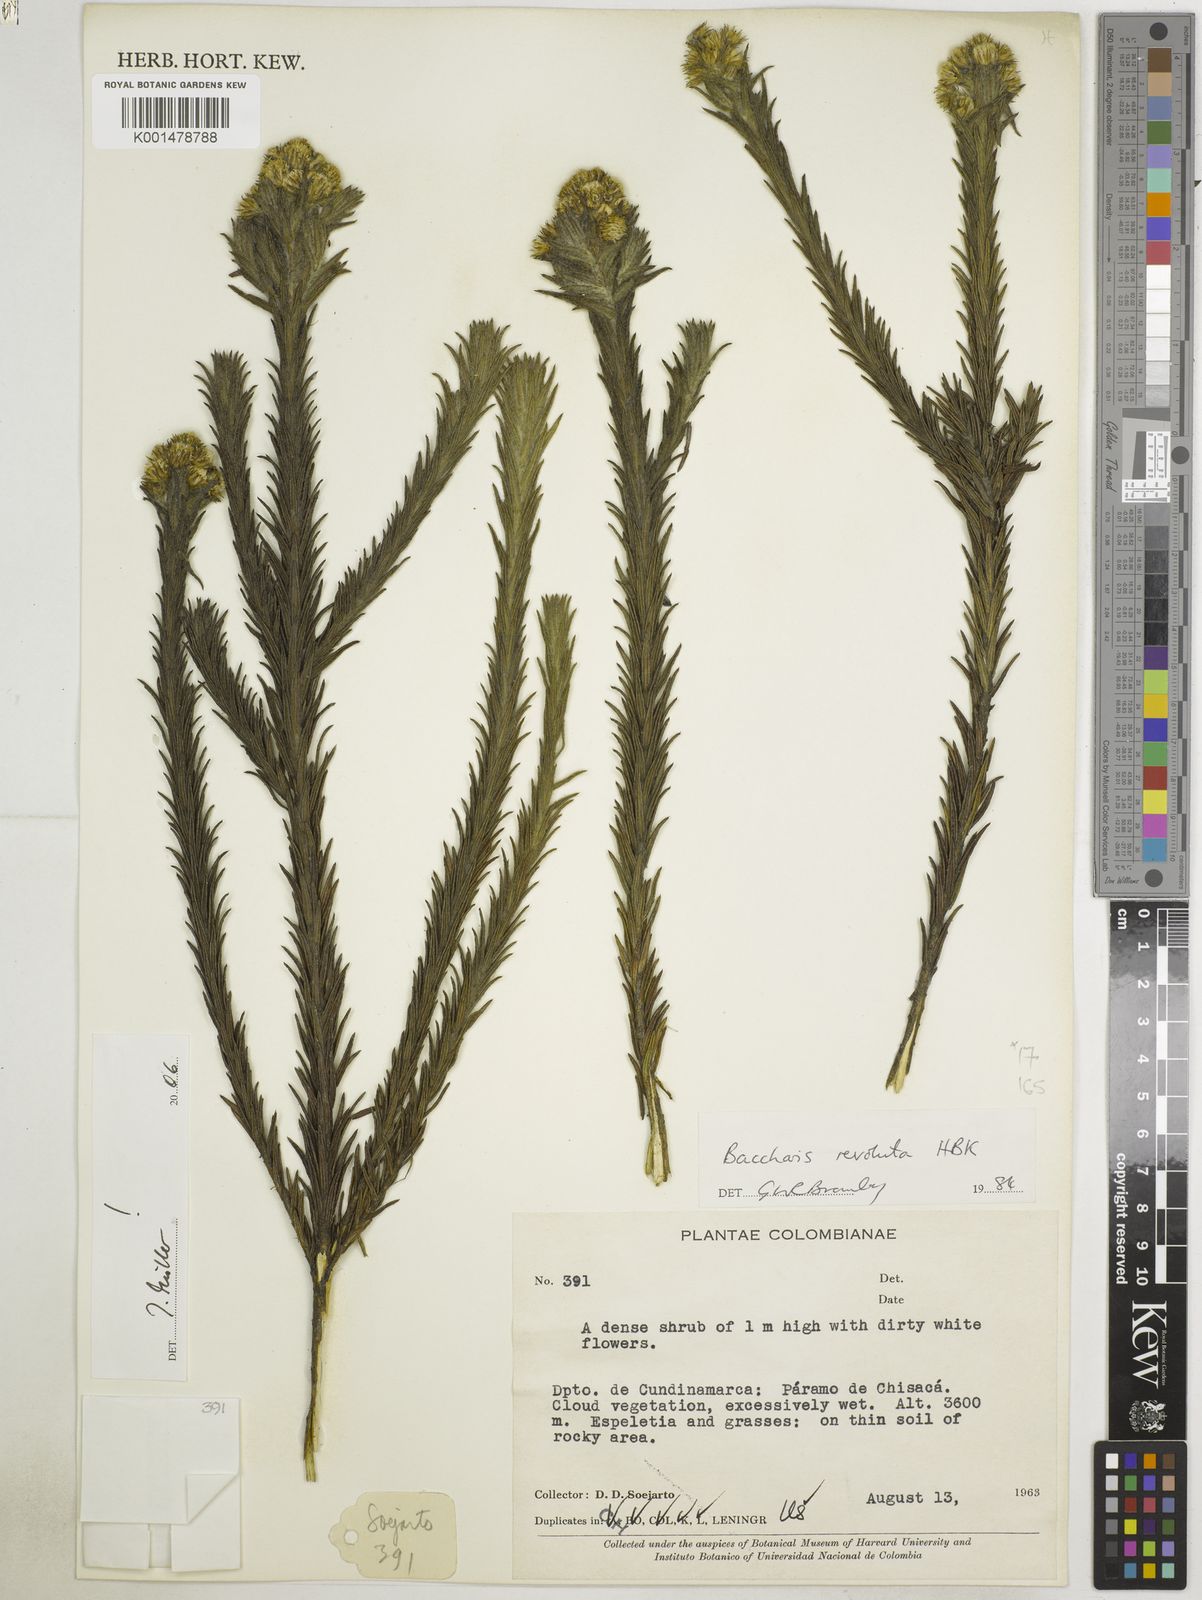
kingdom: Plantae
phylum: Tracheophyta
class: Magnoliopsida
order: Asterales
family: Asteraceae
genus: Baccharis
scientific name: Baccharis revoluta
